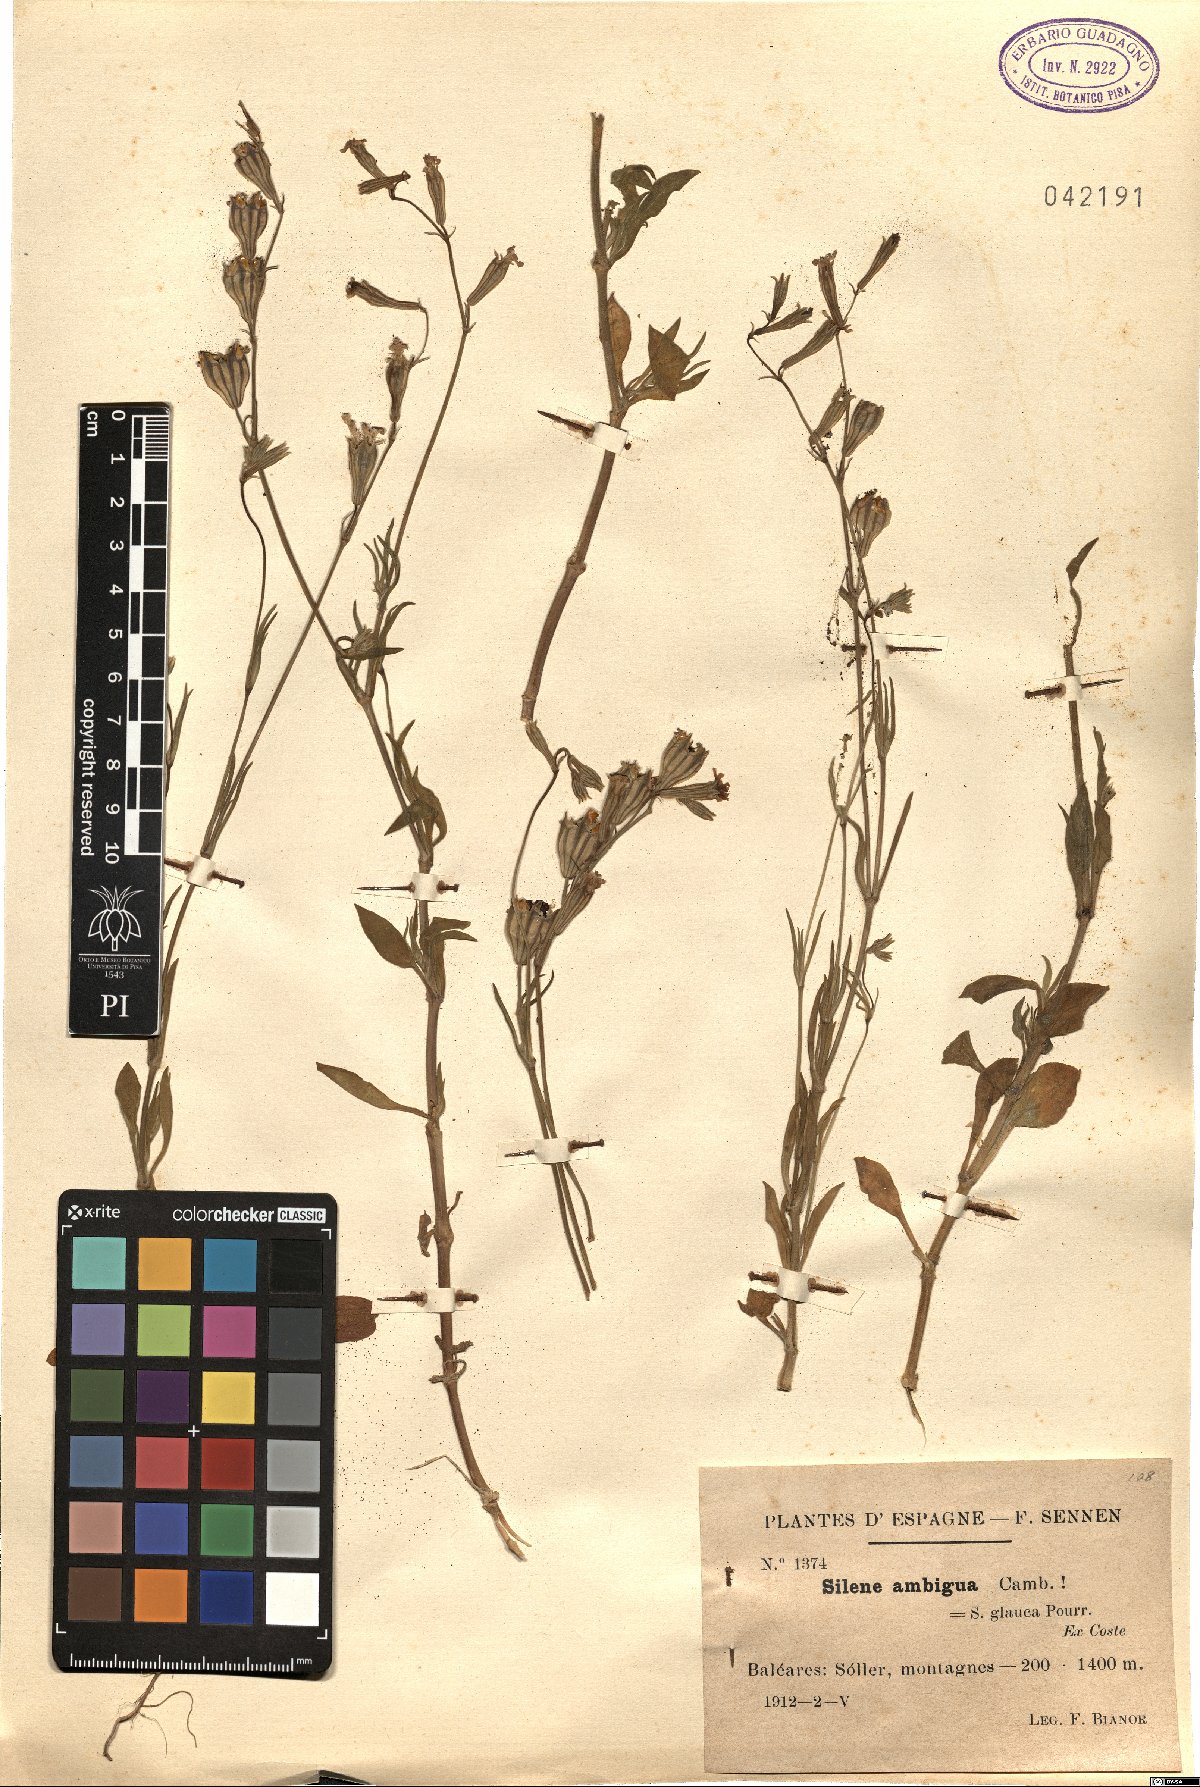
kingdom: Plantae
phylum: Tracheophyta
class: Magnoliopsida
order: Caryophyllales
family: Caryophyllaceae
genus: Silene
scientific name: Silene secundiflora
